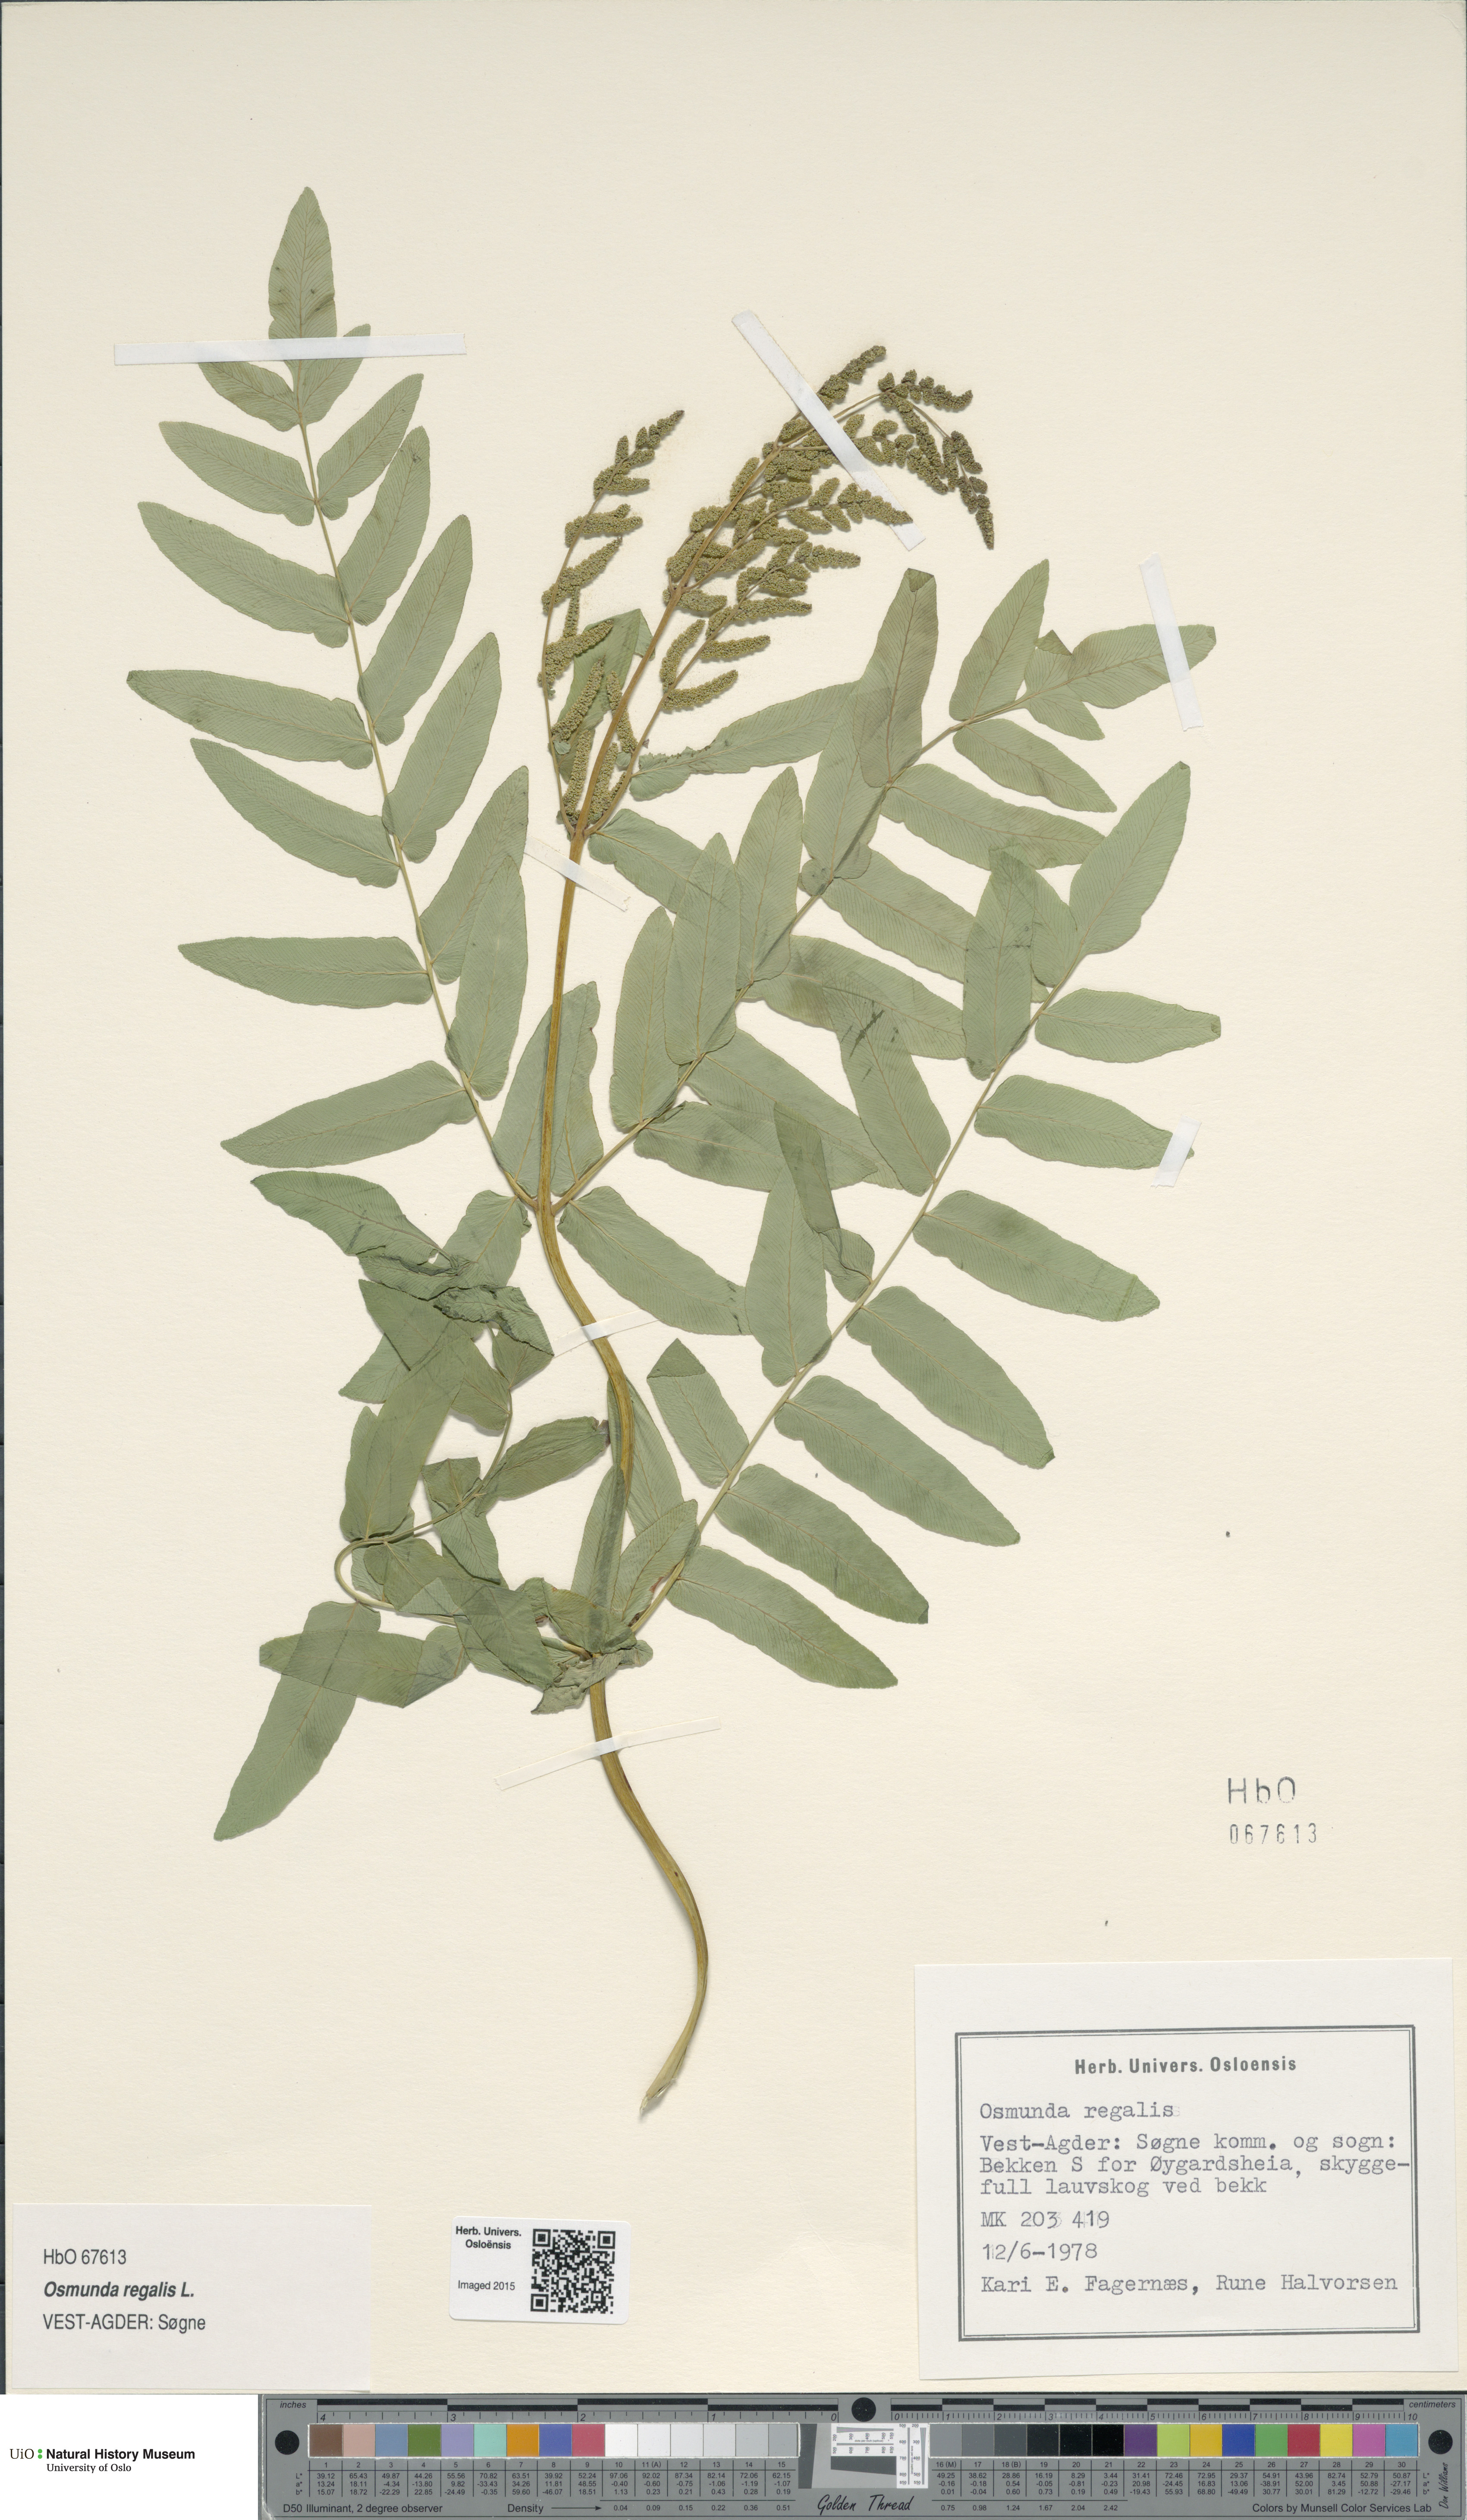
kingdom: Plantae
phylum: Tracheophyta
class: Polypodiopsida
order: Osmundales
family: Osmundaceae
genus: Osmunda
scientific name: Osmunda regalis
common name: Royal fern
